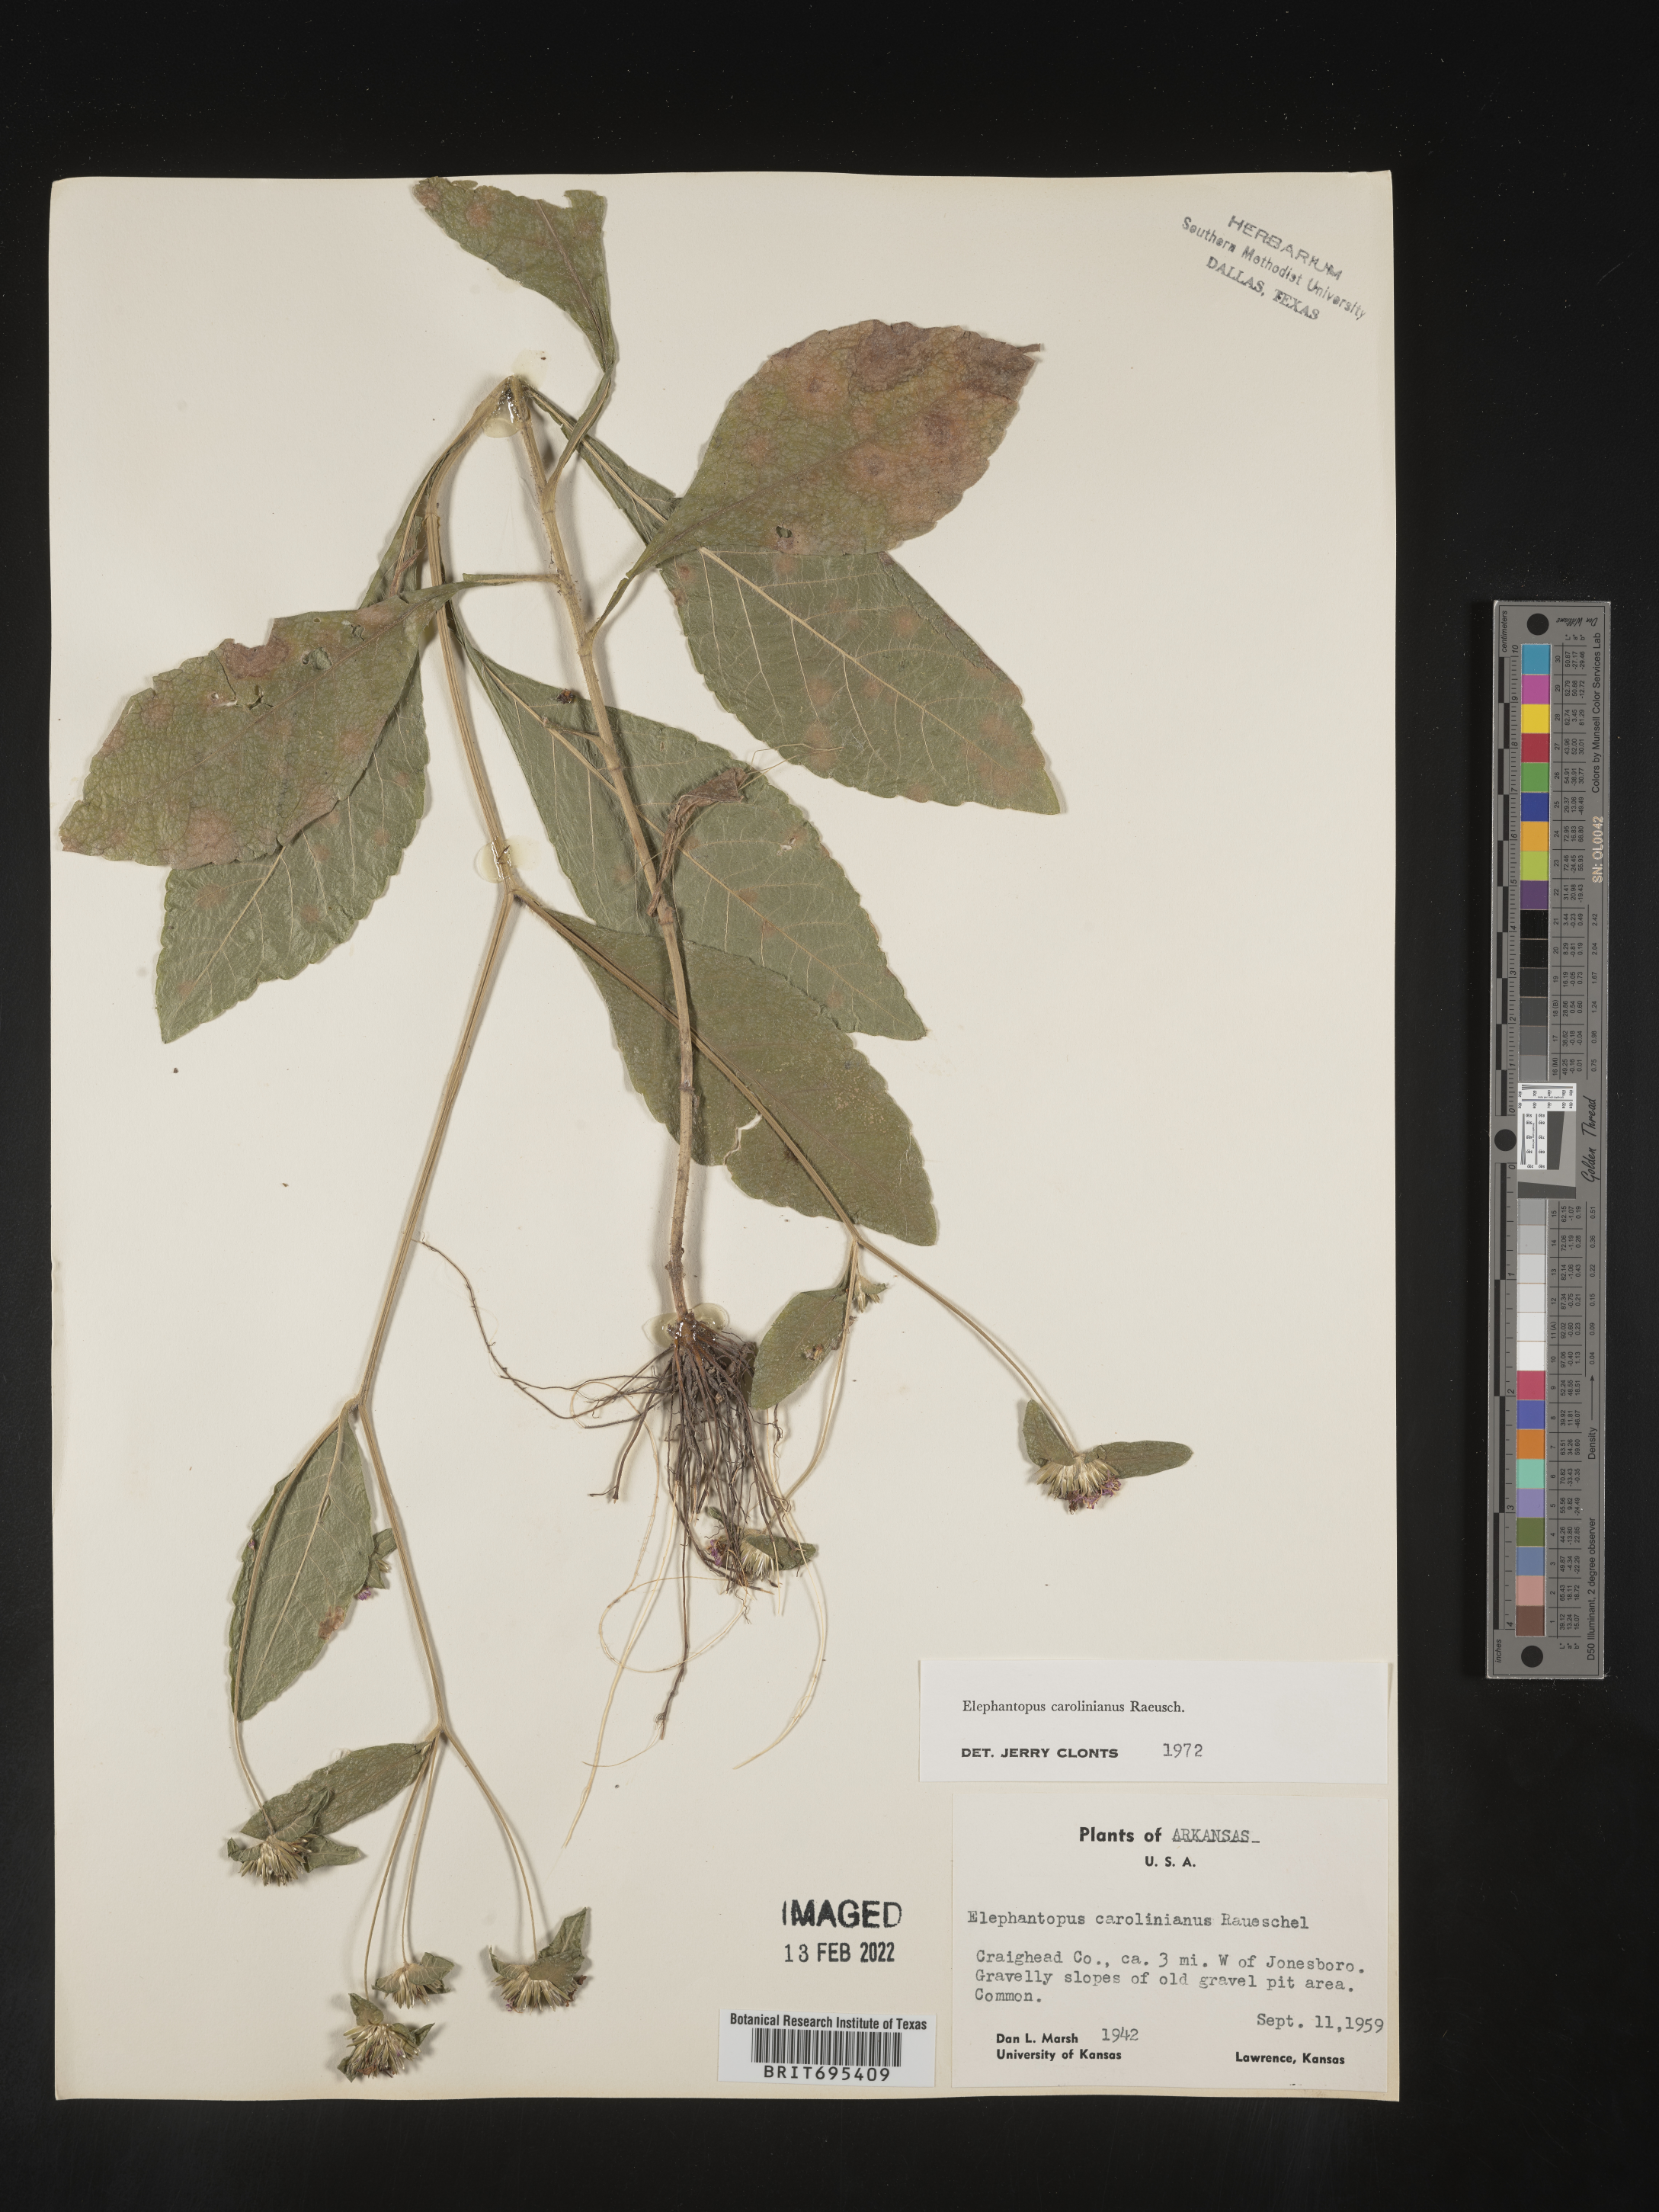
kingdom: Plantae
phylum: Tracheophyta
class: Magnoliopsida
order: Asterales
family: Asteraceae
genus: Elephantopus
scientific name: Elephantopus carolinianus
